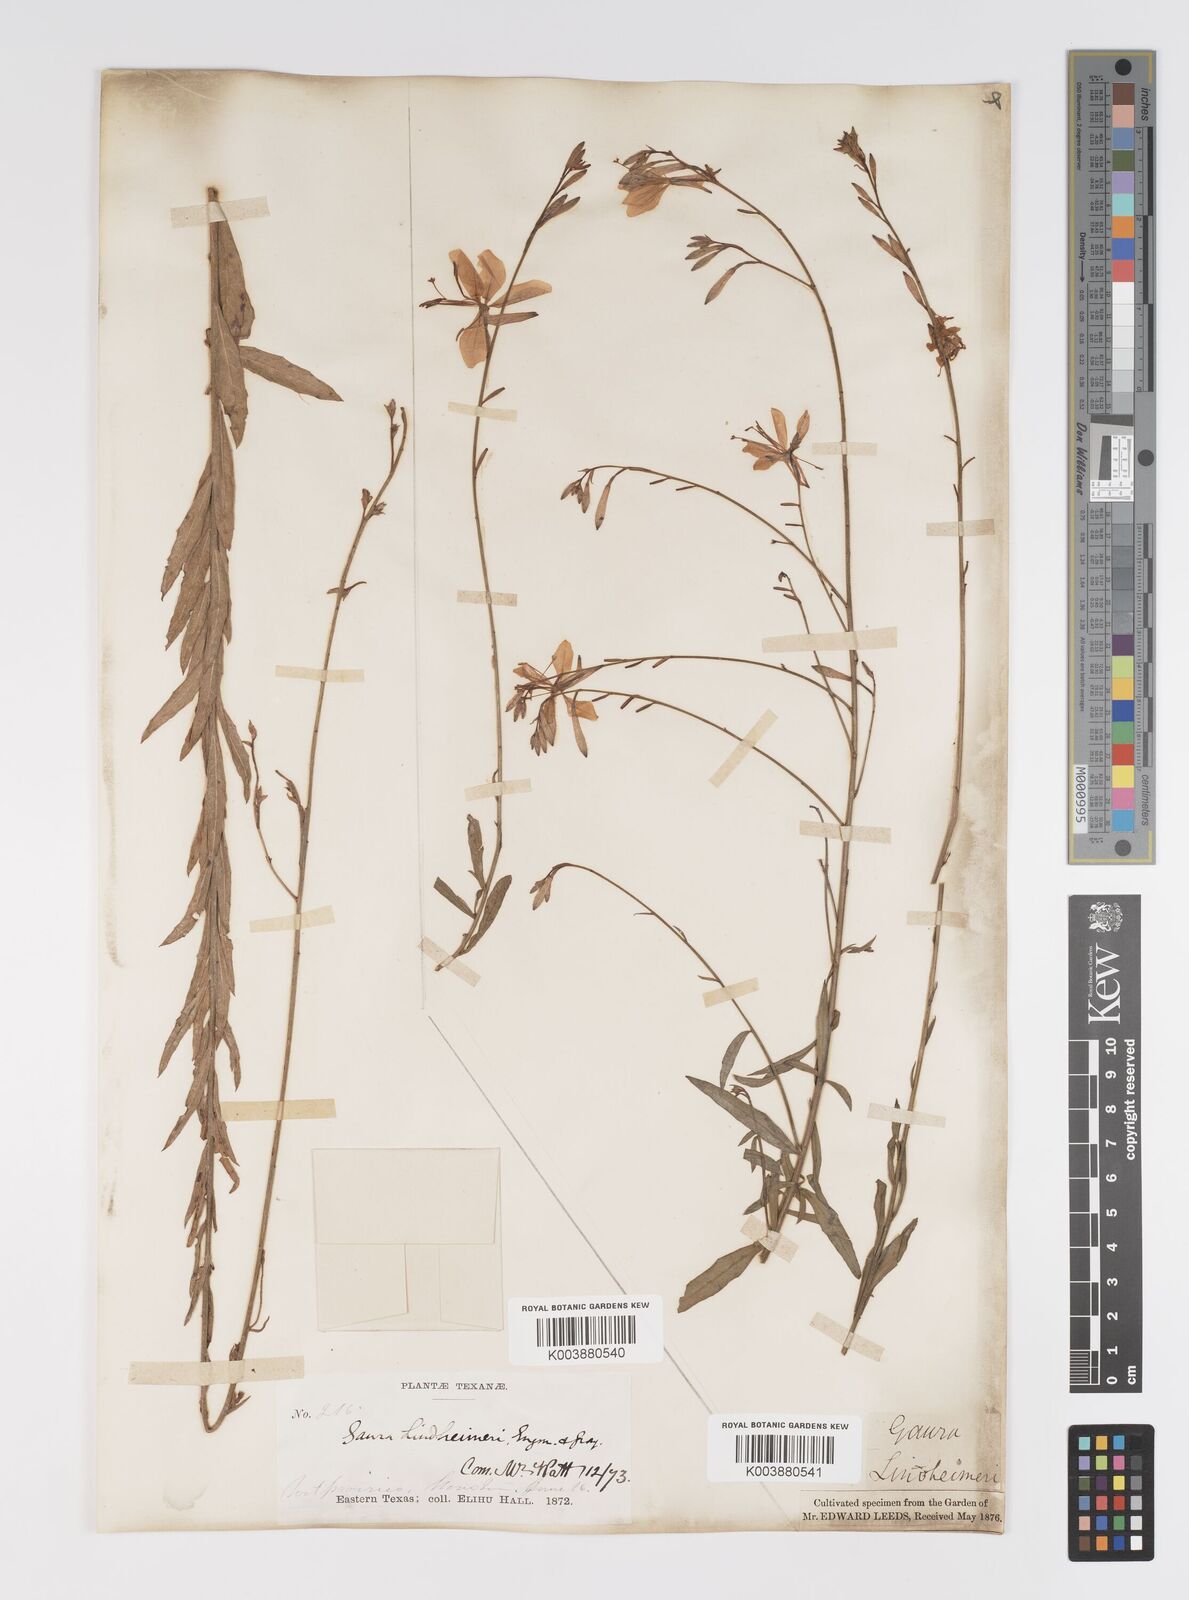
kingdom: Plantae
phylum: Tracheophyta
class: Magnoliopsida
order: Myrtales
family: Onagraceae
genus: Oenothera
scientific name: Oenothera lindheimeri
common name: Lindheimer's beeblossom
